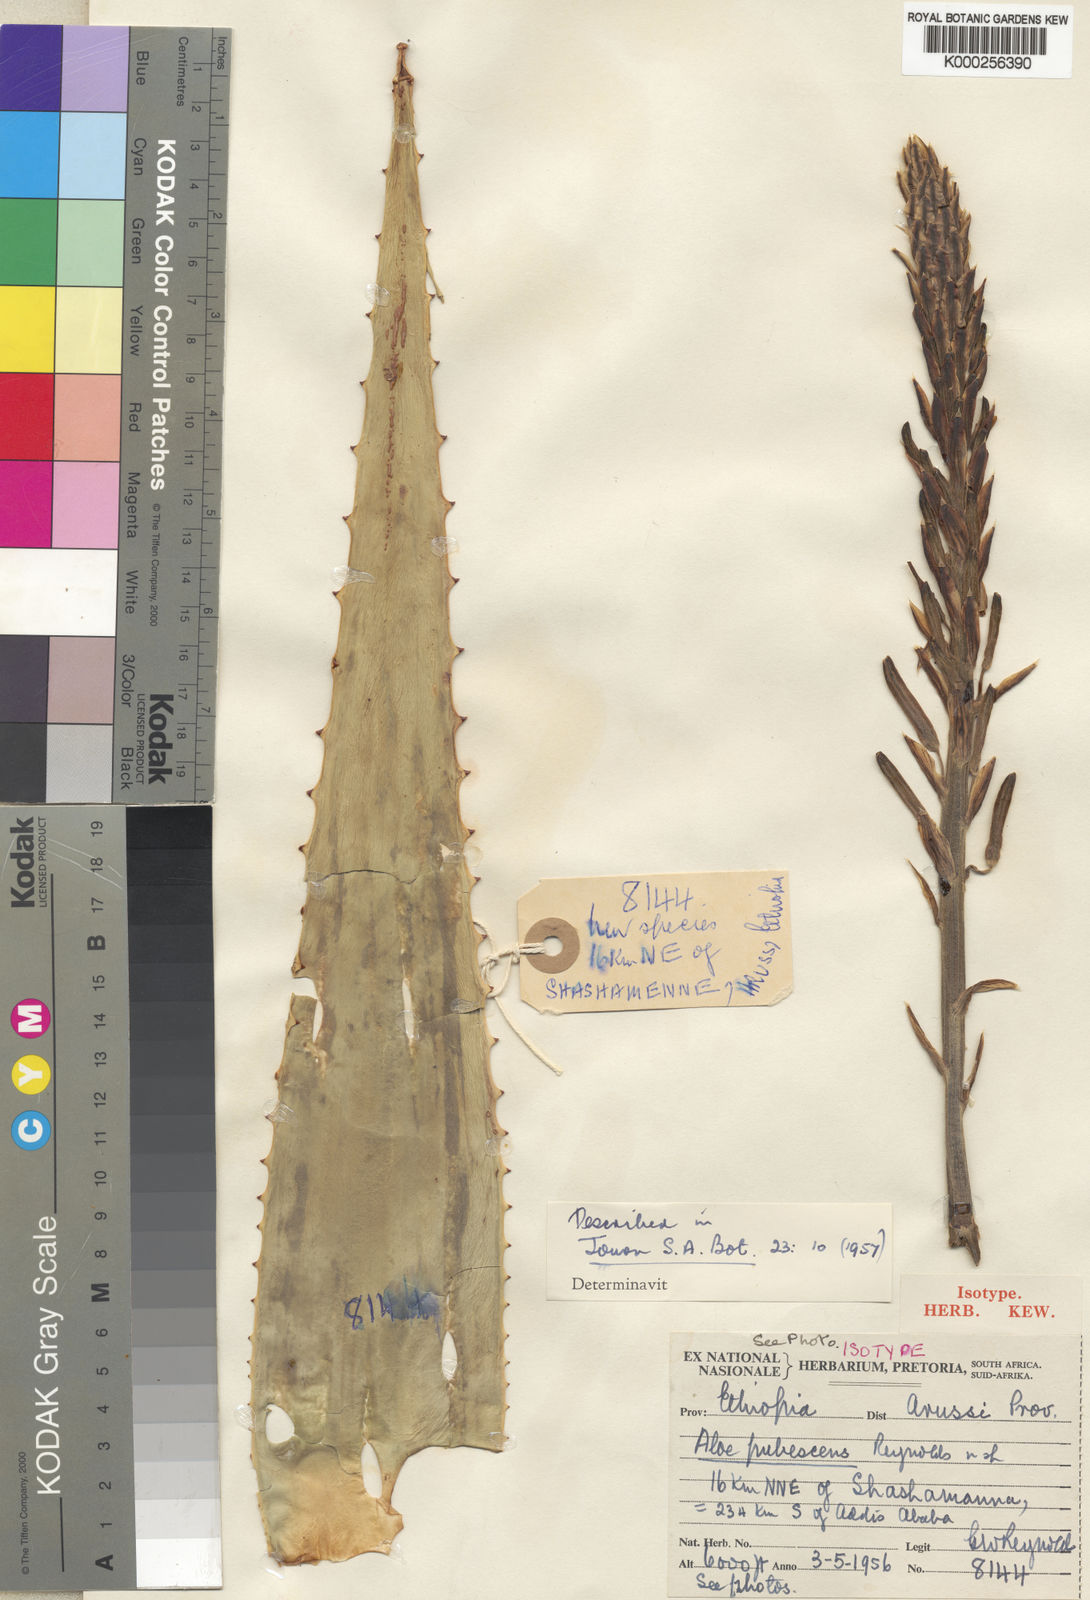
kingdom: Plantae
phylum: Tracheophyta
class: Liliopsida
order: Asparagales
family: Asphodelaceae
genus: Aloe
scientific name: Aloe pubescens
